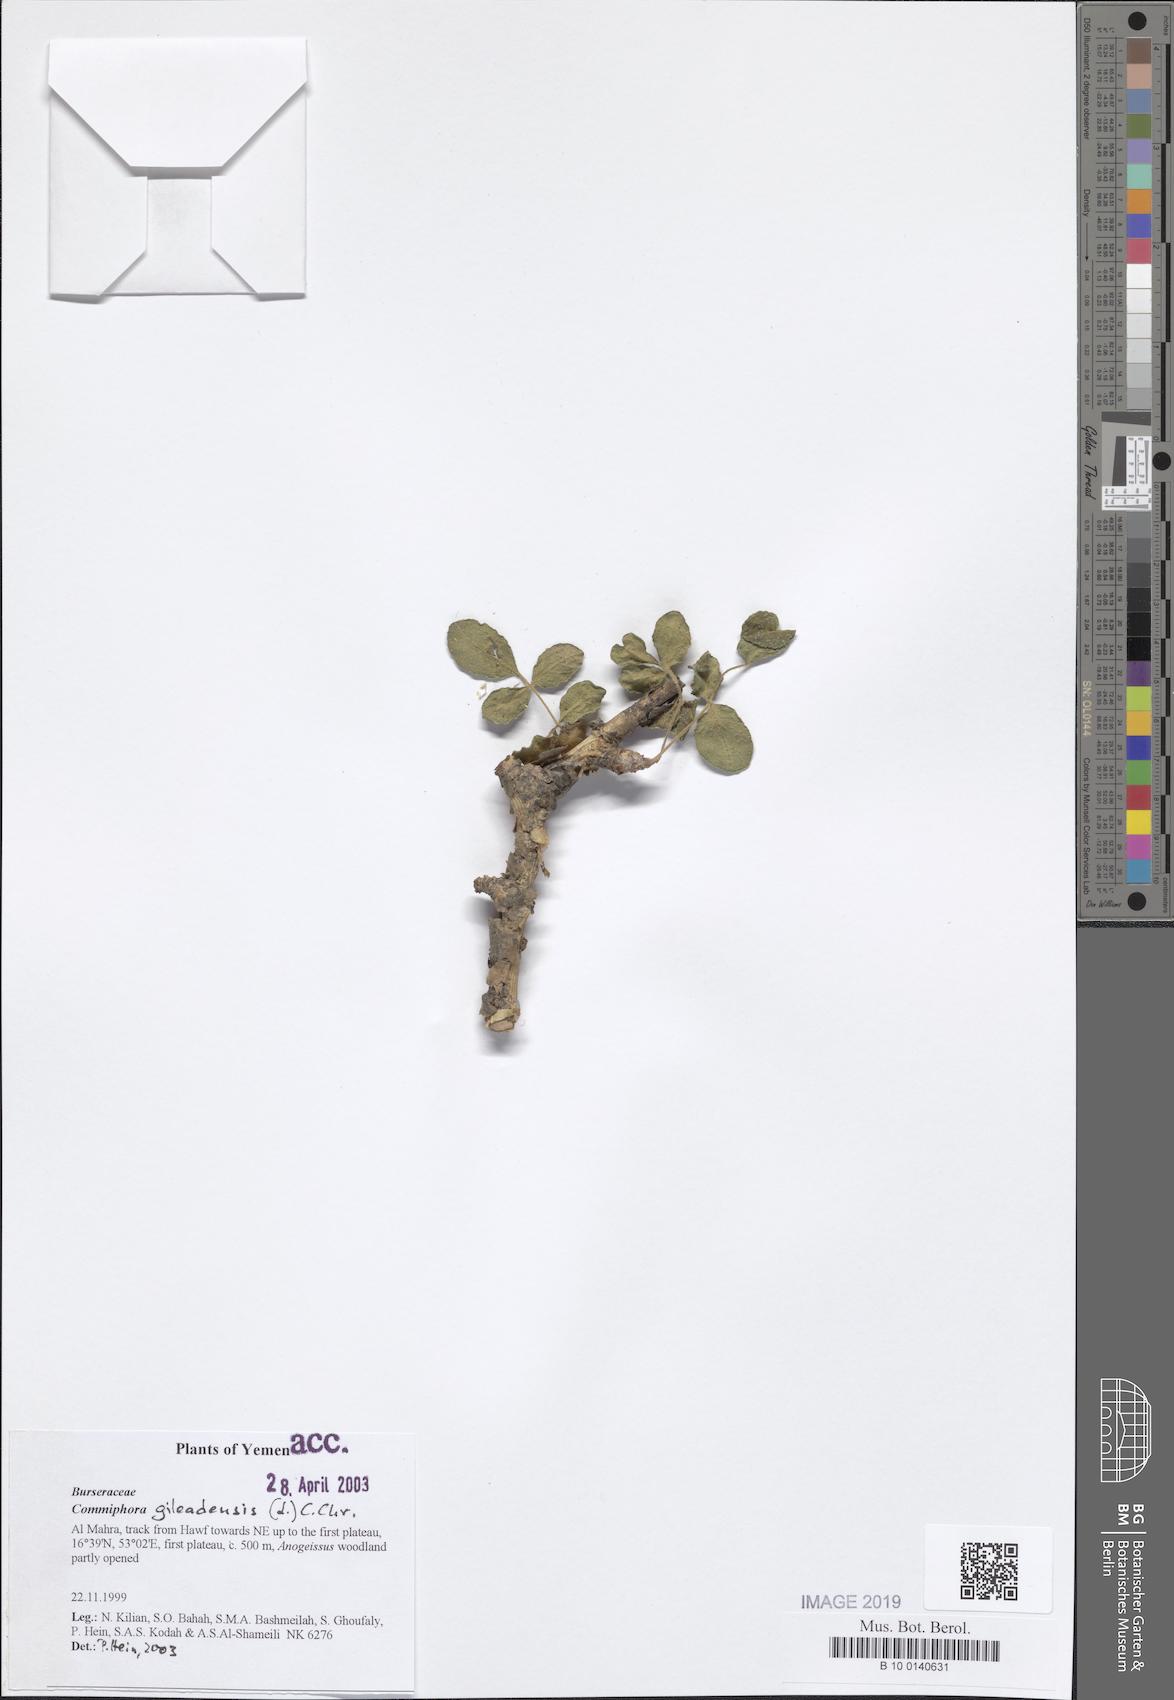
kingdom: Plantae
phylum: Tracheophyta
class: Magnoliopsida
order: Sapindales
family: Burseraceae
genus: Commiphora
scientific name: Commiphora gileadensis
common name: Balm-of-gilead
